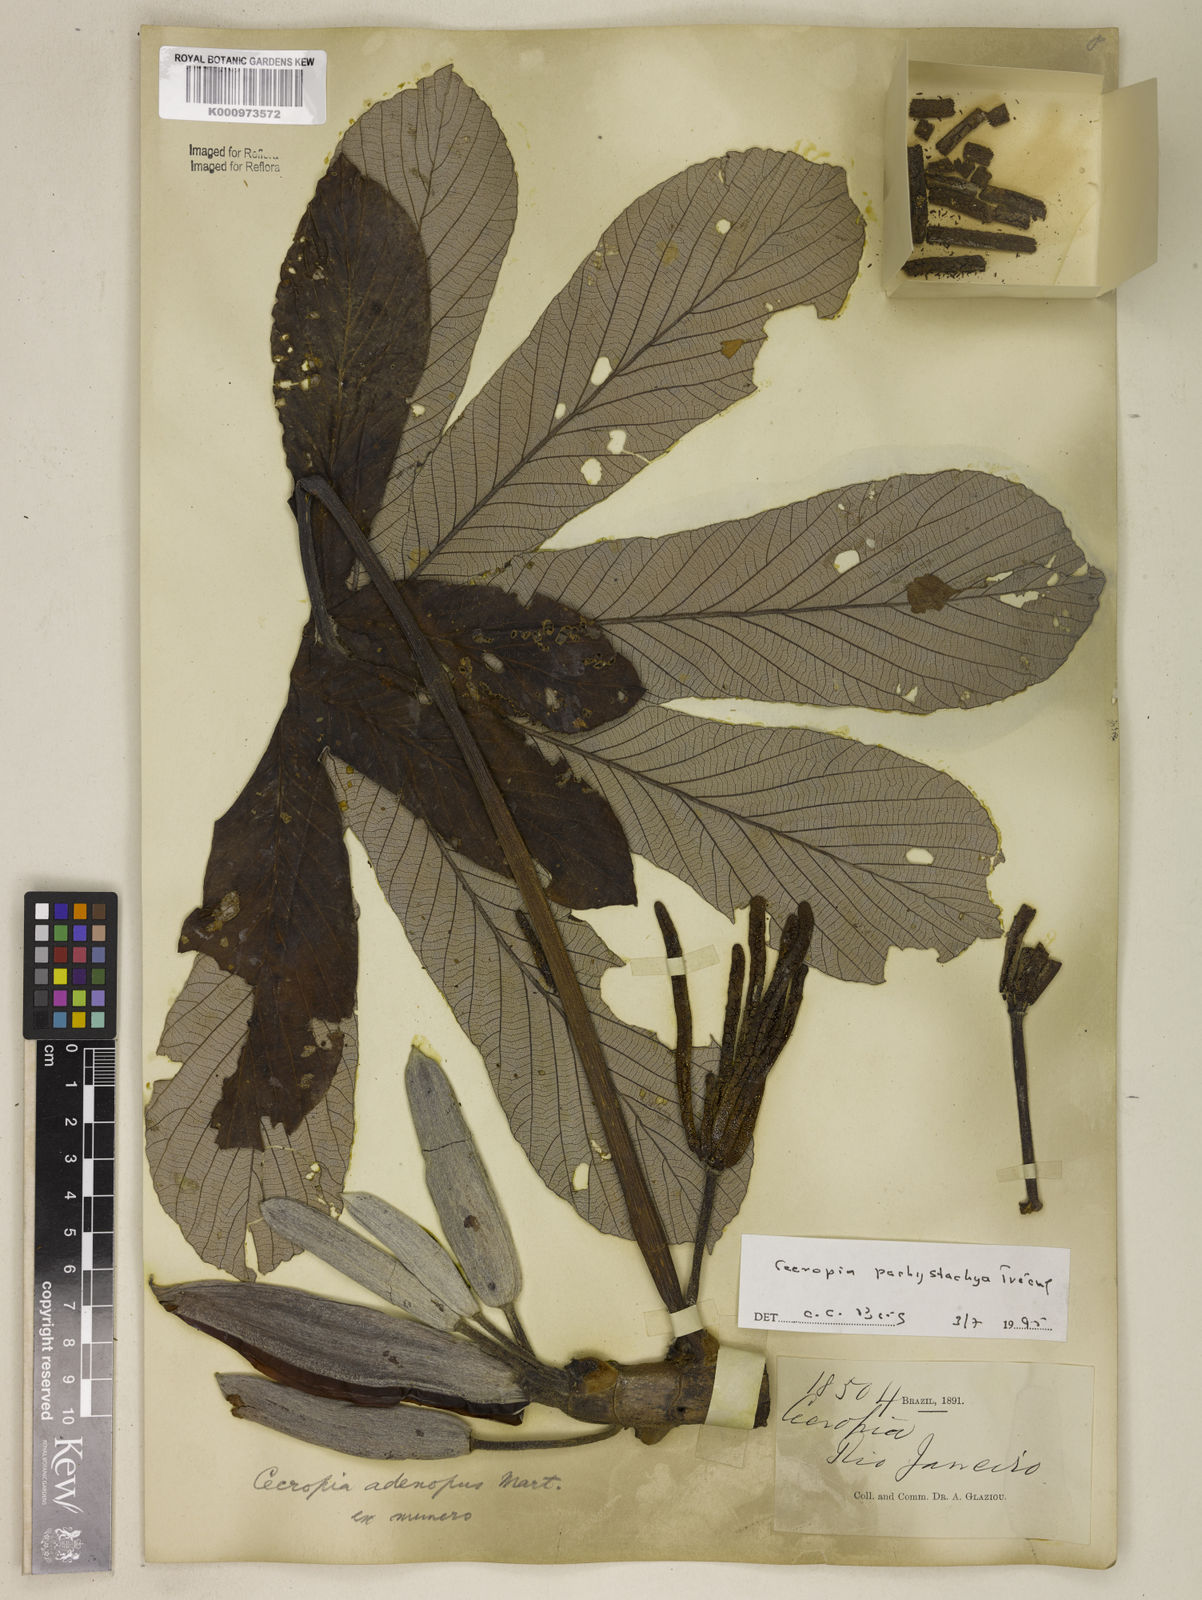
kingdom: Plantae
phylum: Tracheophyta
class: Magnoliopsida
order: Rosales
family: Urticaceae
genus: Cecropia
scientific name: Cecropia
